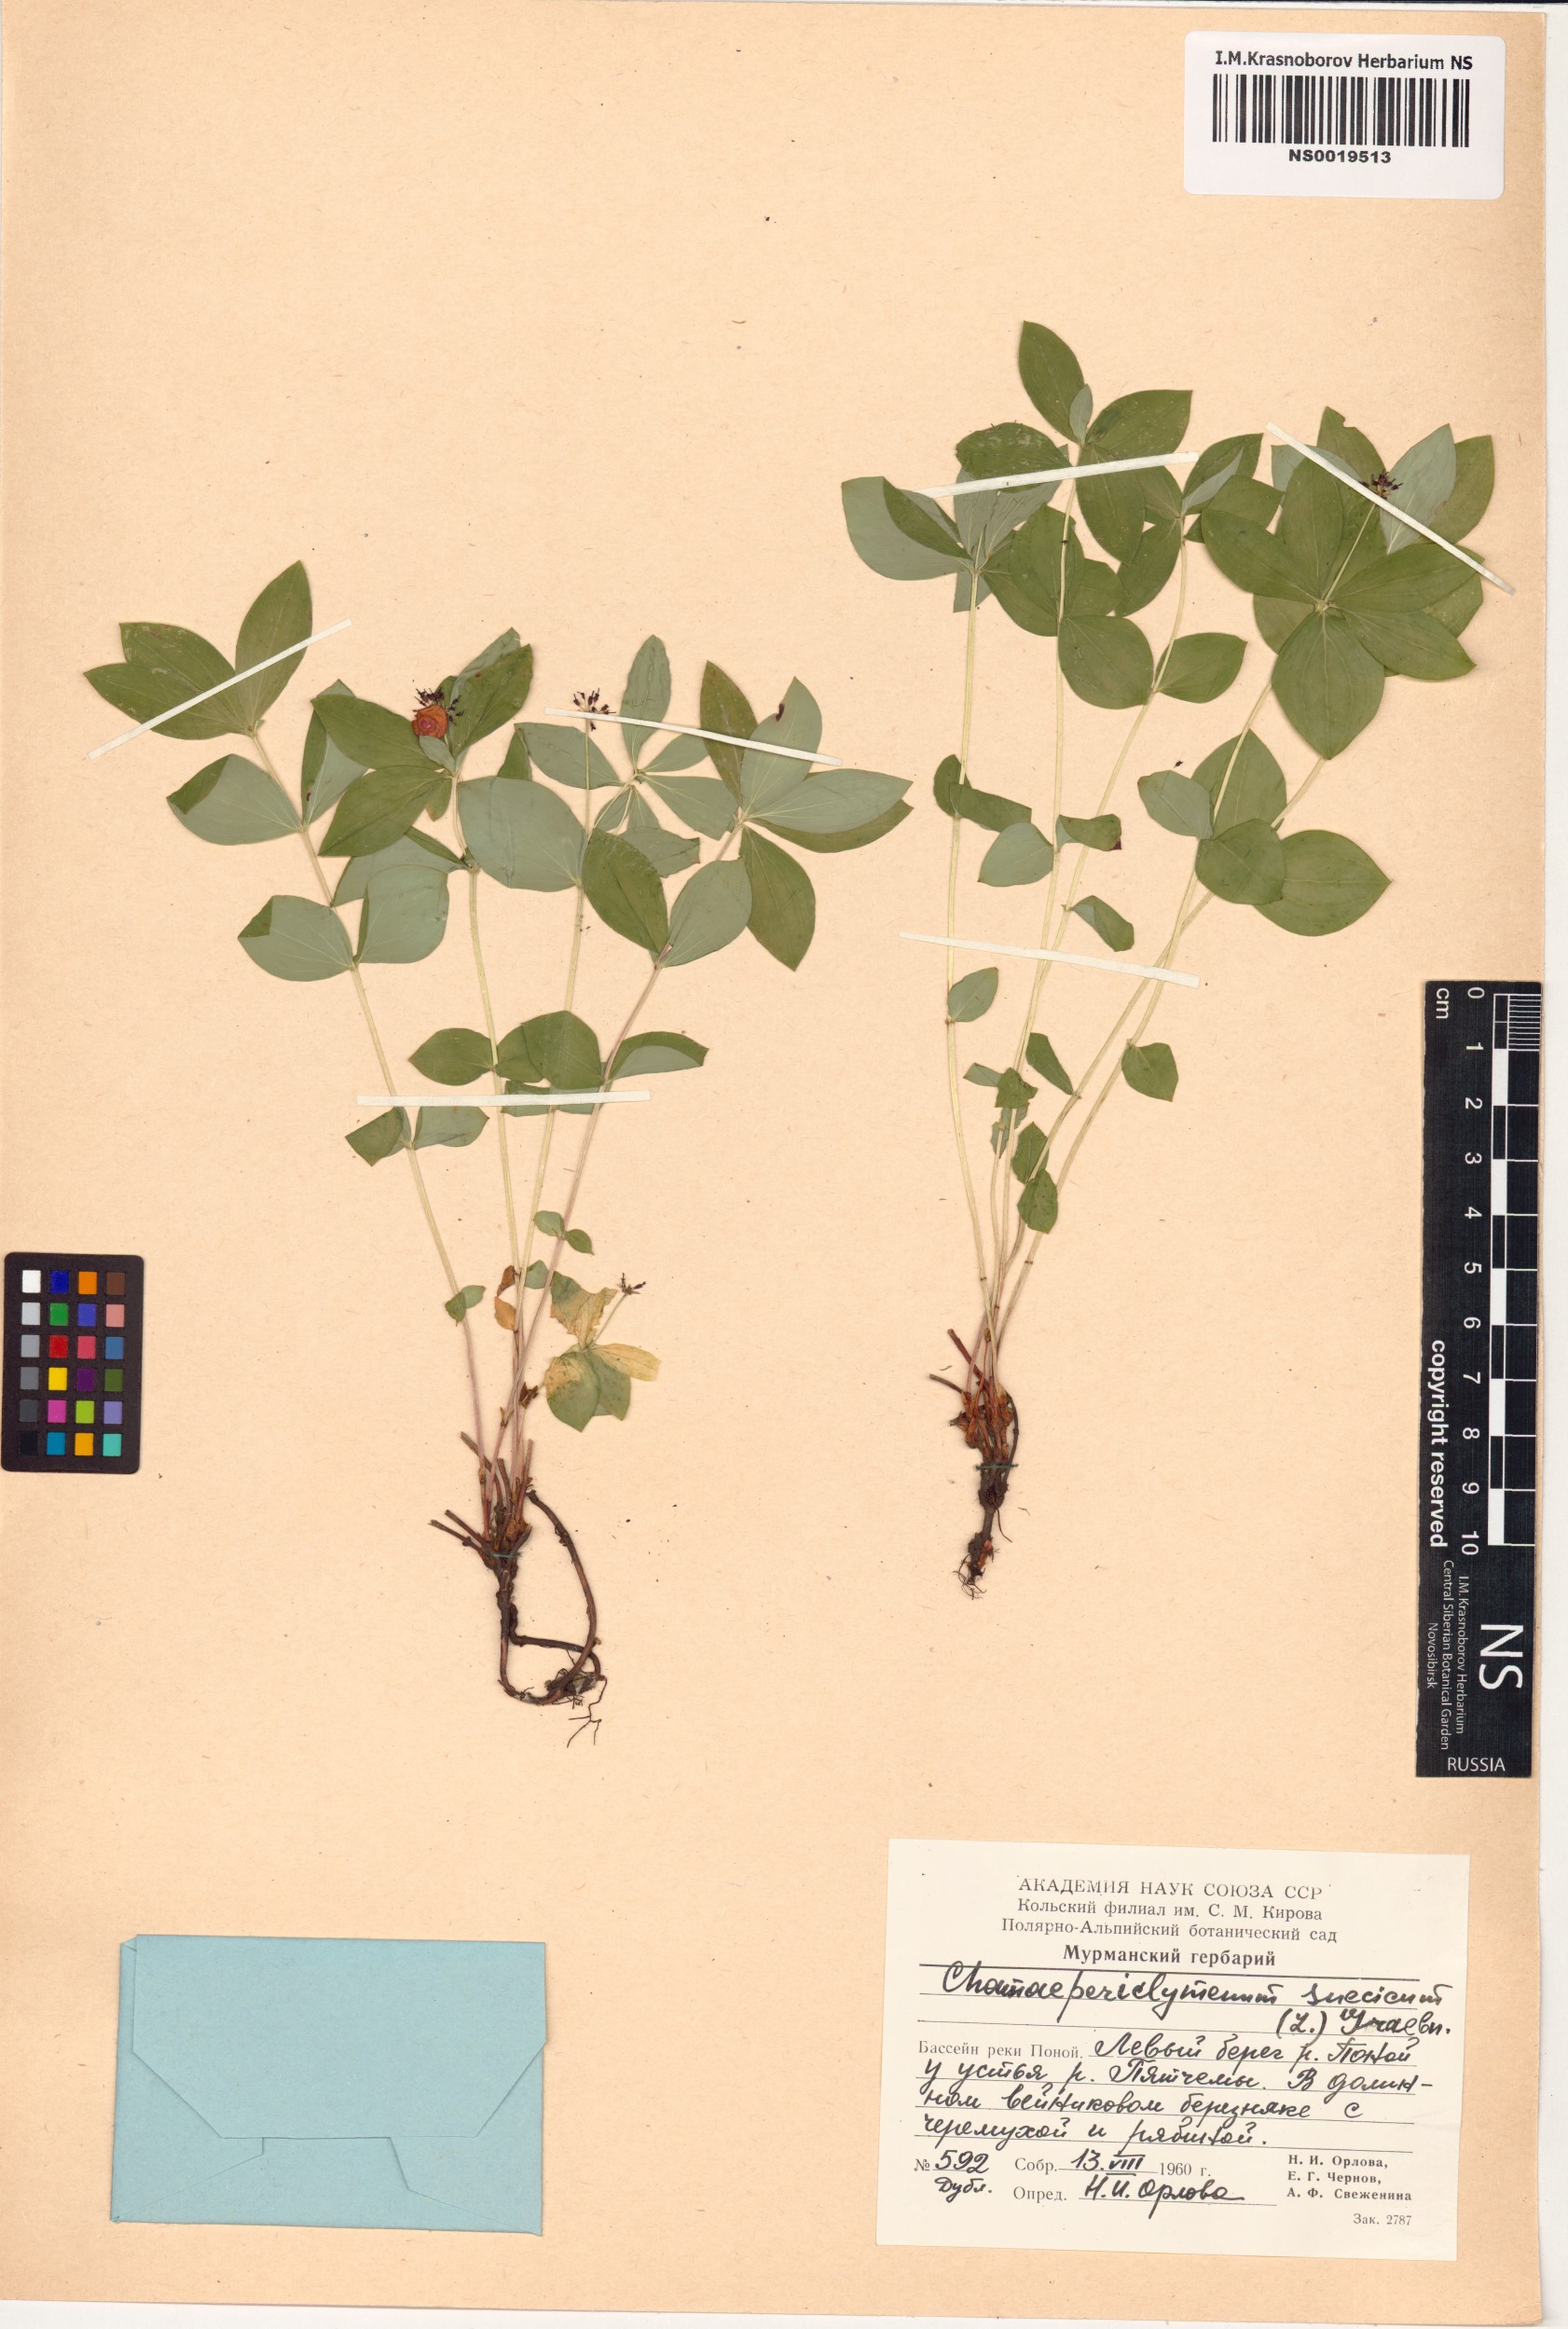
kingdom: Plantae
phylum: Tracheophyta
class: Magnoliopsida
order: Cornales
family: Cornaceae
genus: Cornus
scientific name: Cornus suecica
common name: Dwarf cornel
